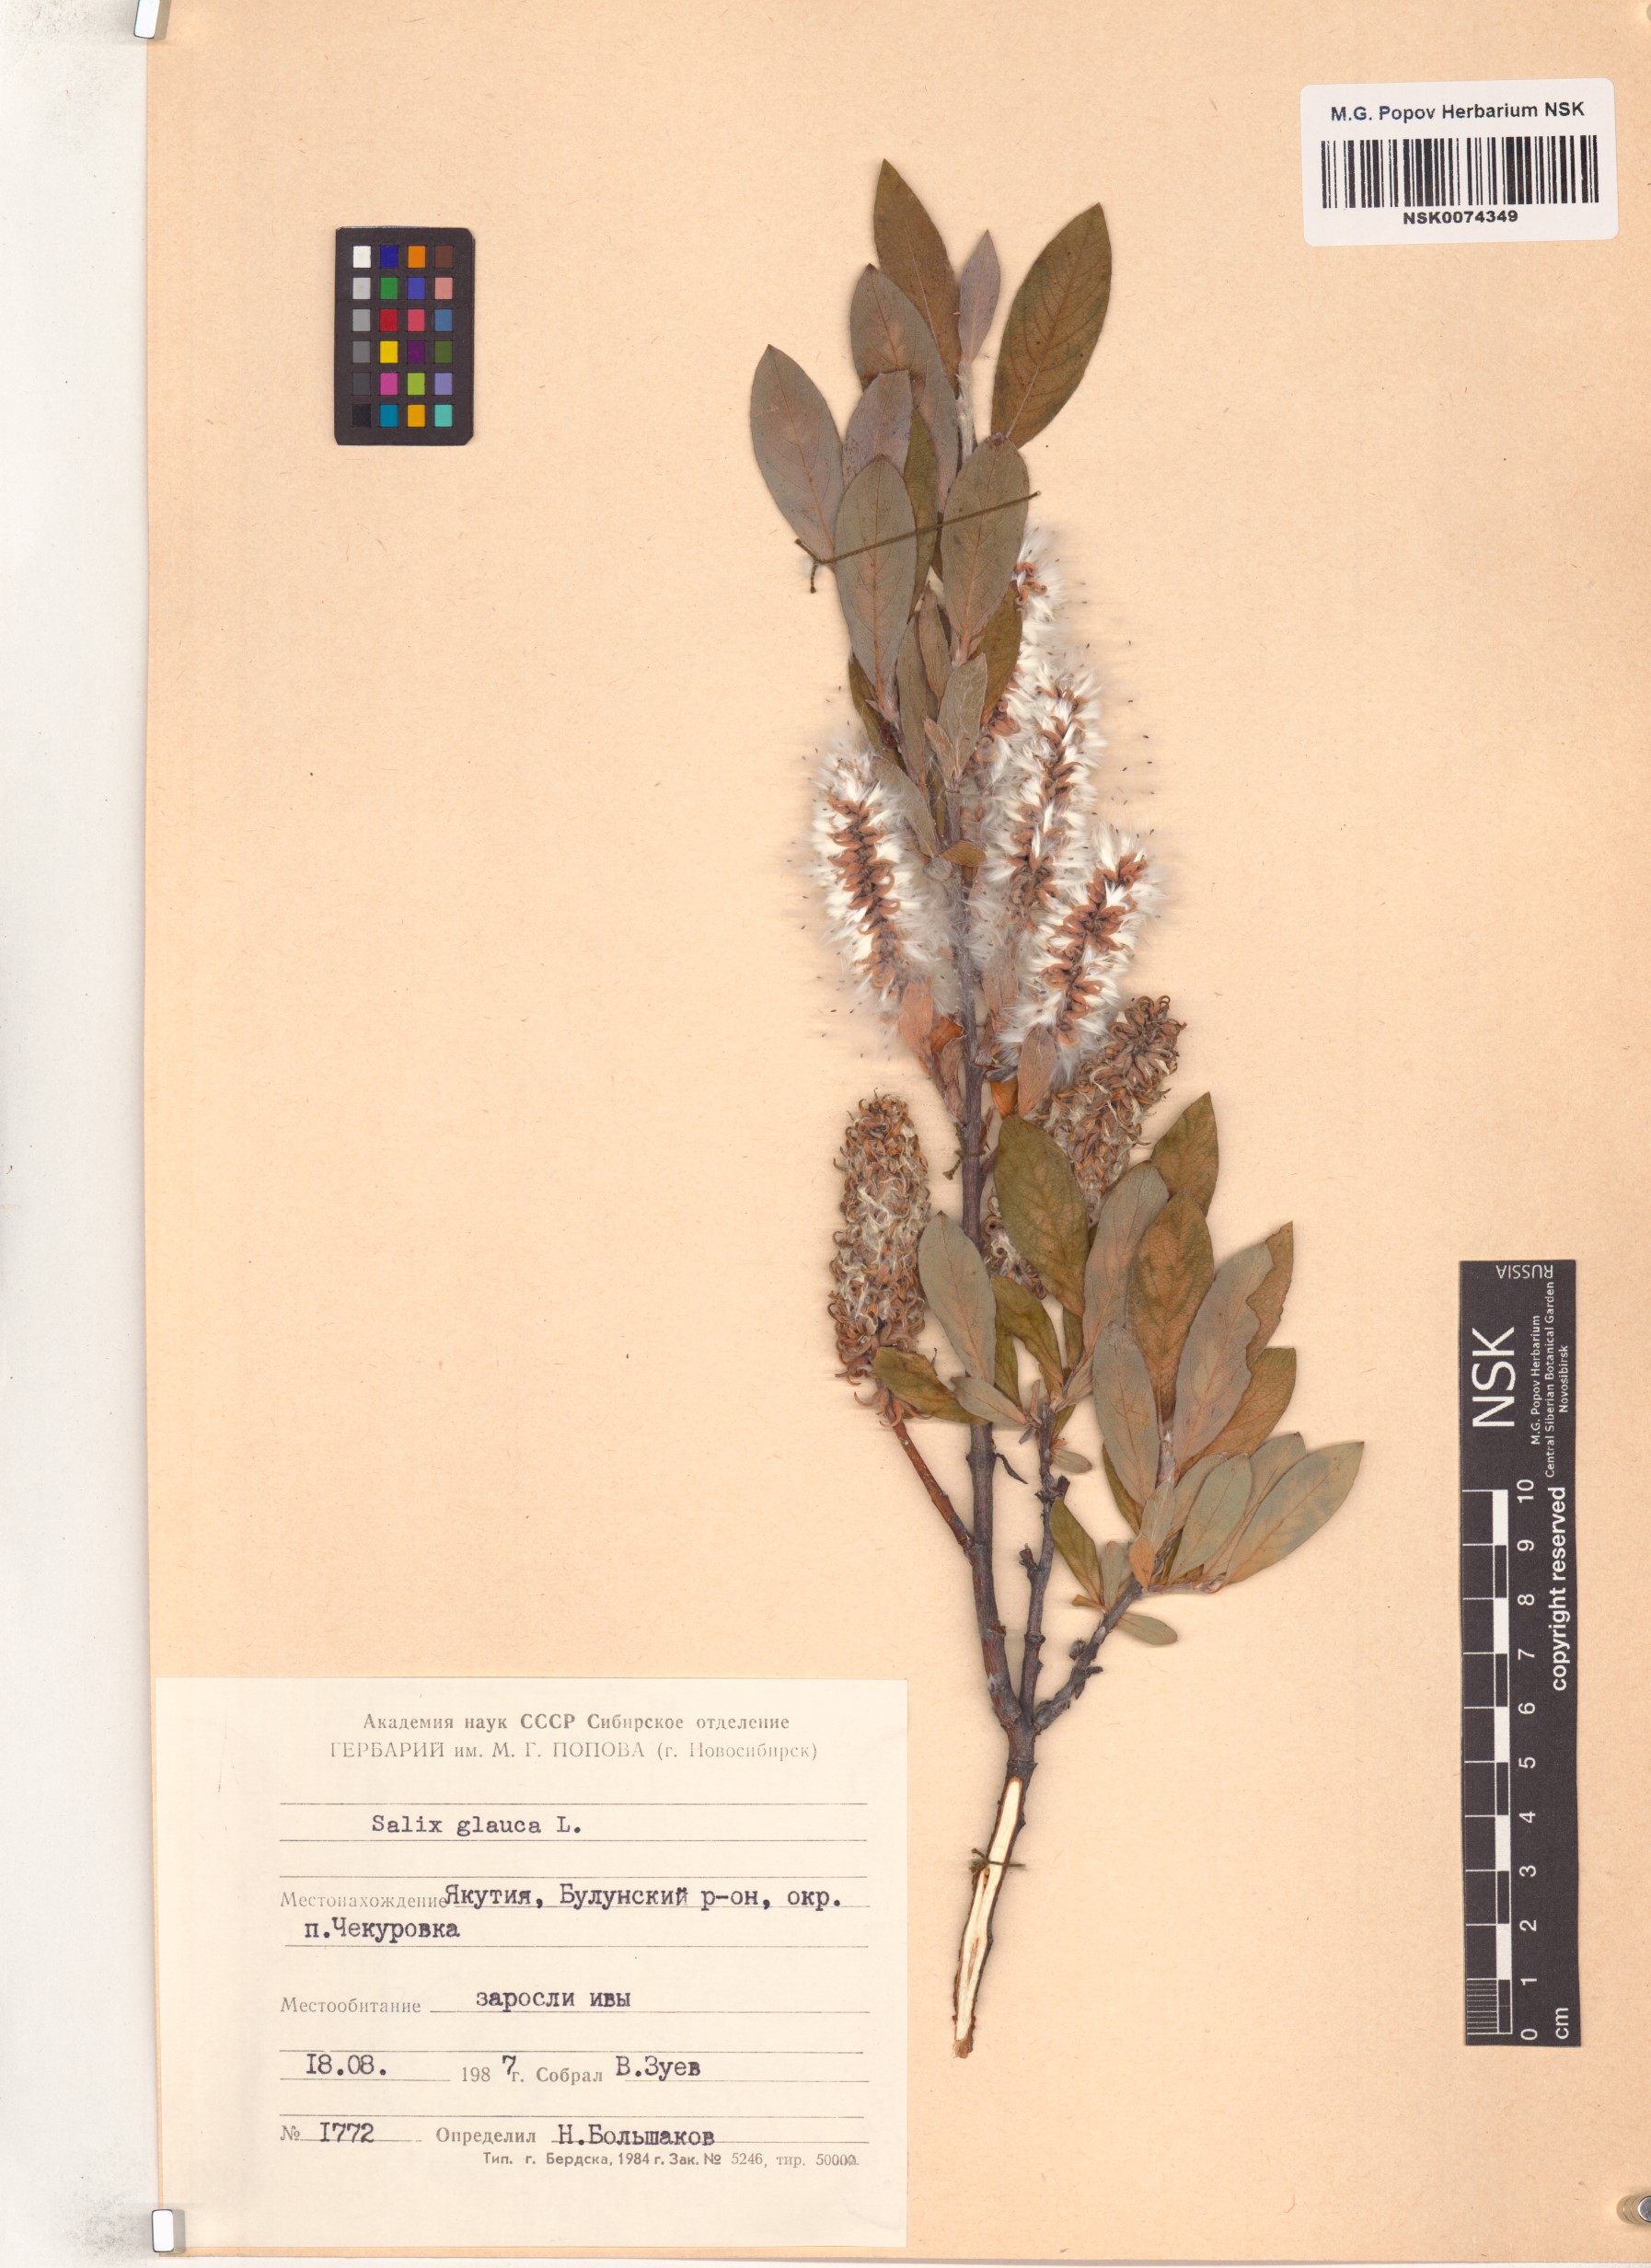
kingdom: Plantae
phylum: Tracheophyta
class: Magnoliopsida
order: Malpighiales
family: Salicaceae
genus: Salix
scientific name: Salix glauca
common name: Glaucous willow
